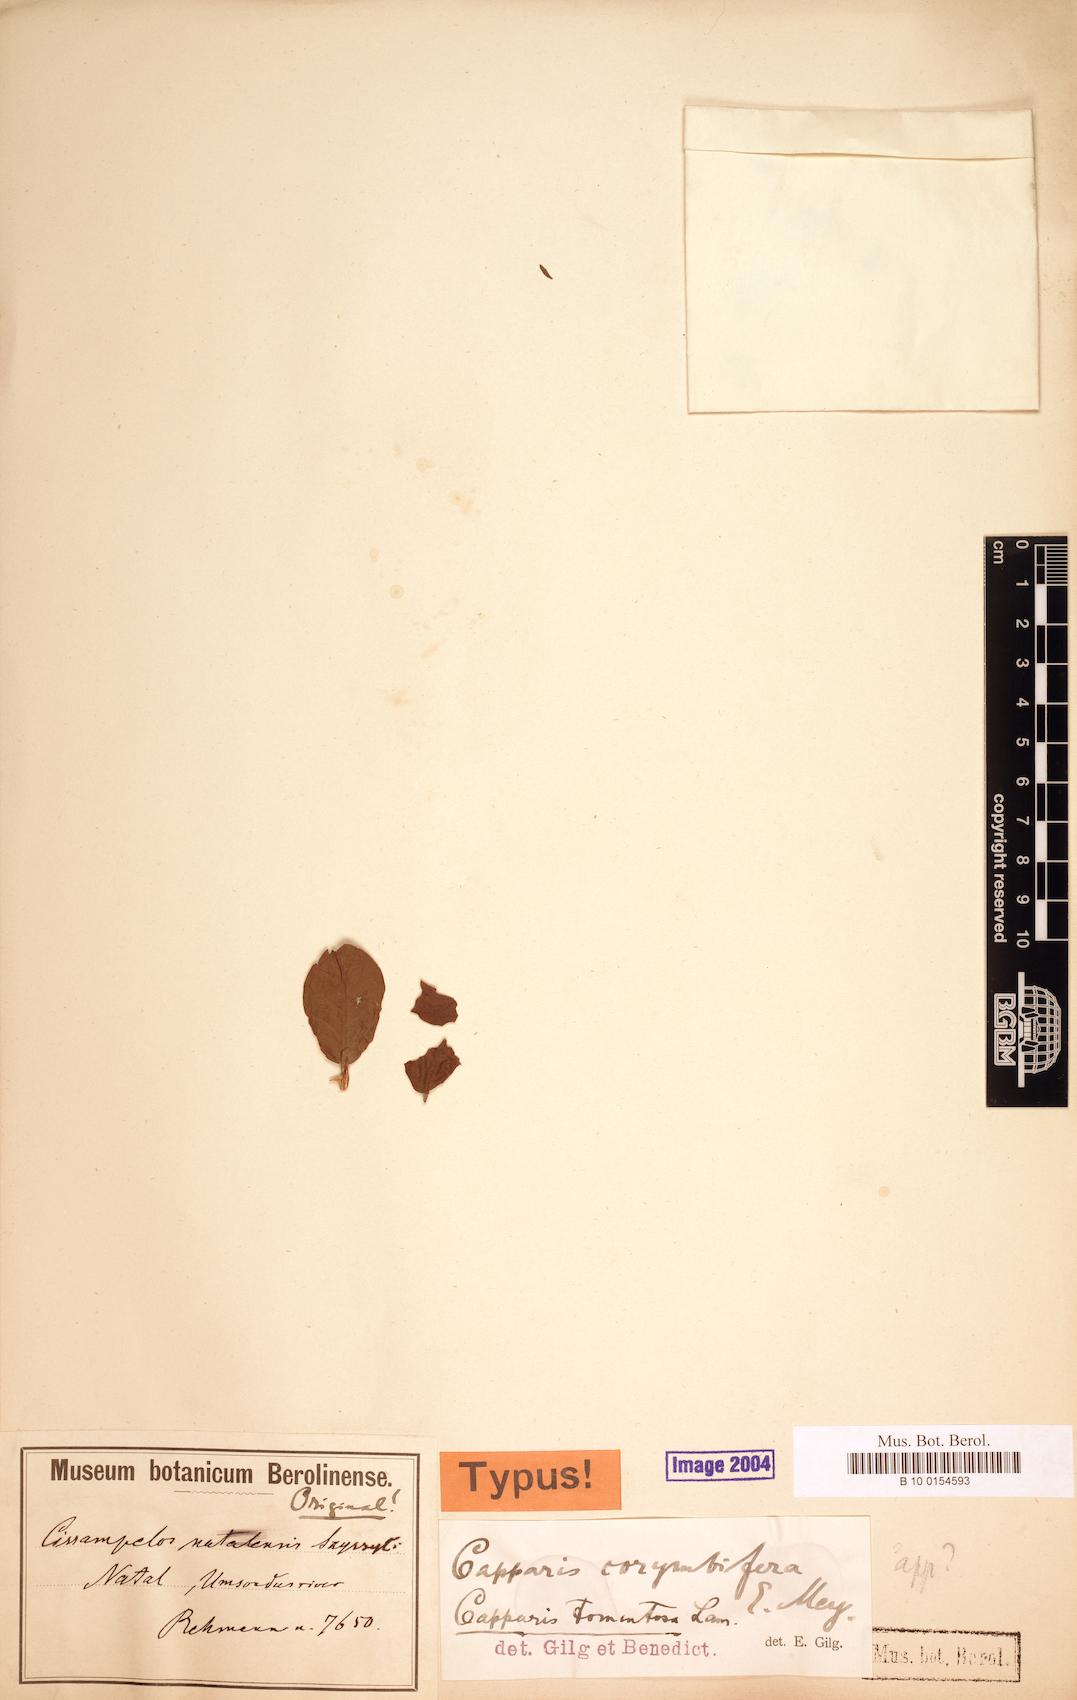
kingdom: Plantae
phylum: Tracheophyta
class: Magnoliopsida
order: Brassicales
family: Capparaceae
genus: Capparis
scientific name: Capparis tomentosa
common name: African caper
